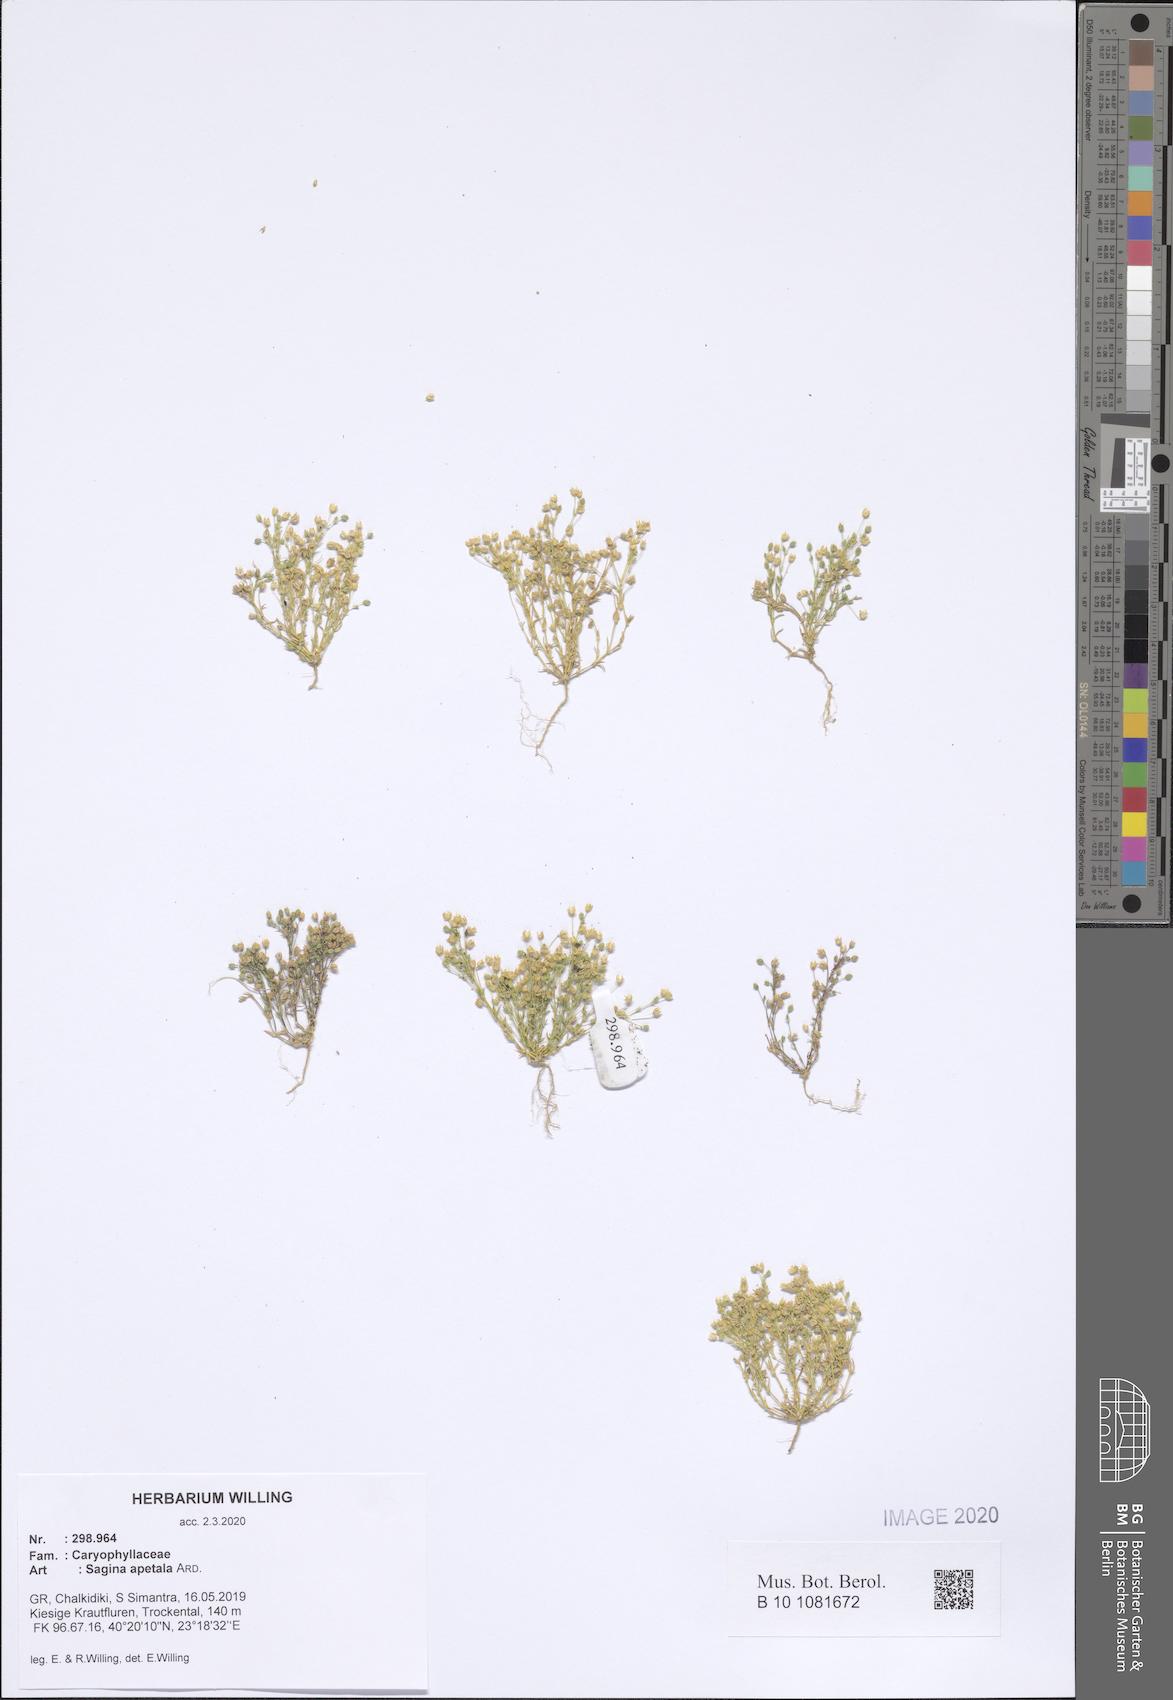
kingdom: Plantae
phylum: Tracheophyta
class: Magnoliopsida
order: Caryophyllales
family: Caryophyllaceae
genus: Sagina
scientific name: Sagina apetala
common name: Annual pearlwort
